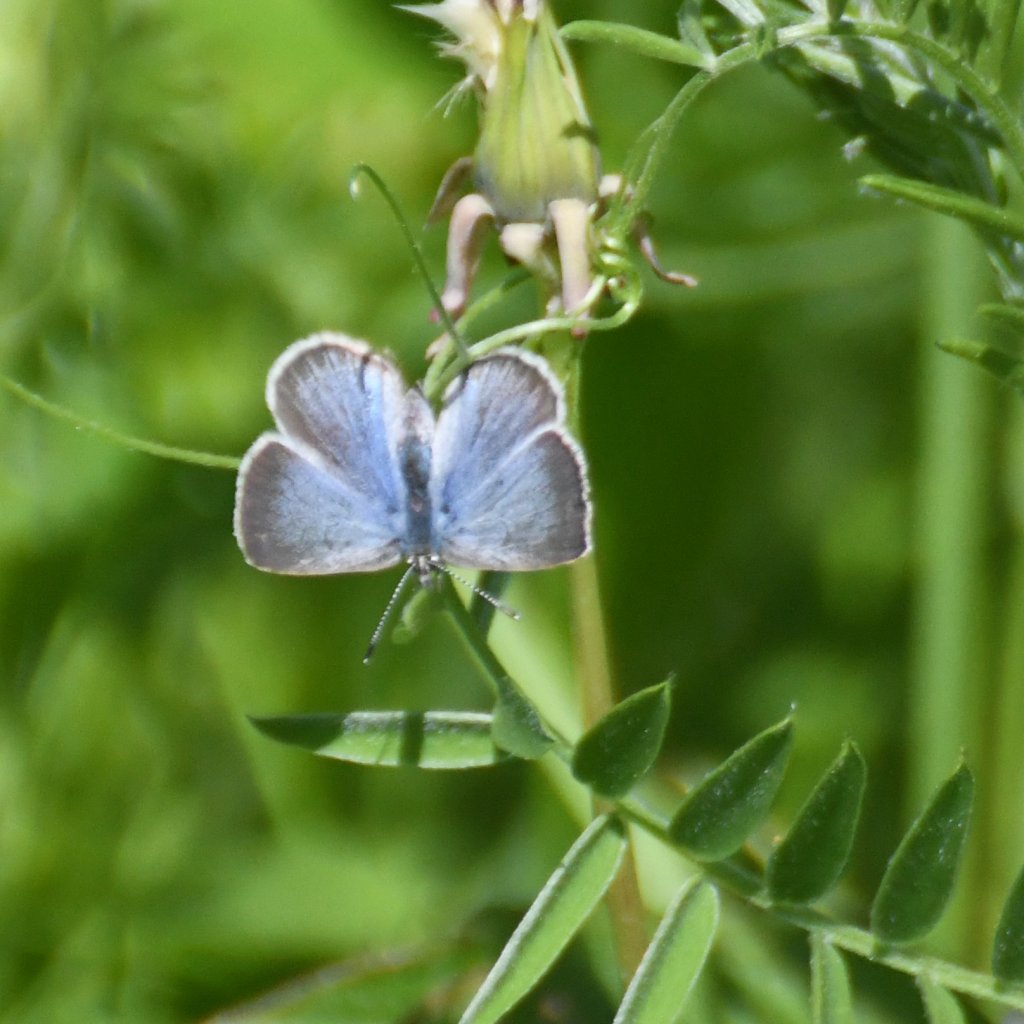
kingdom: Animalia
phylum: Arthropoda
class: Insecta
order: Lepidoptera
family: Lycaenidae
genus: Glaucopsyche
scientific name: Glaucopsyche lygdamus
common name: Silvery Blue
